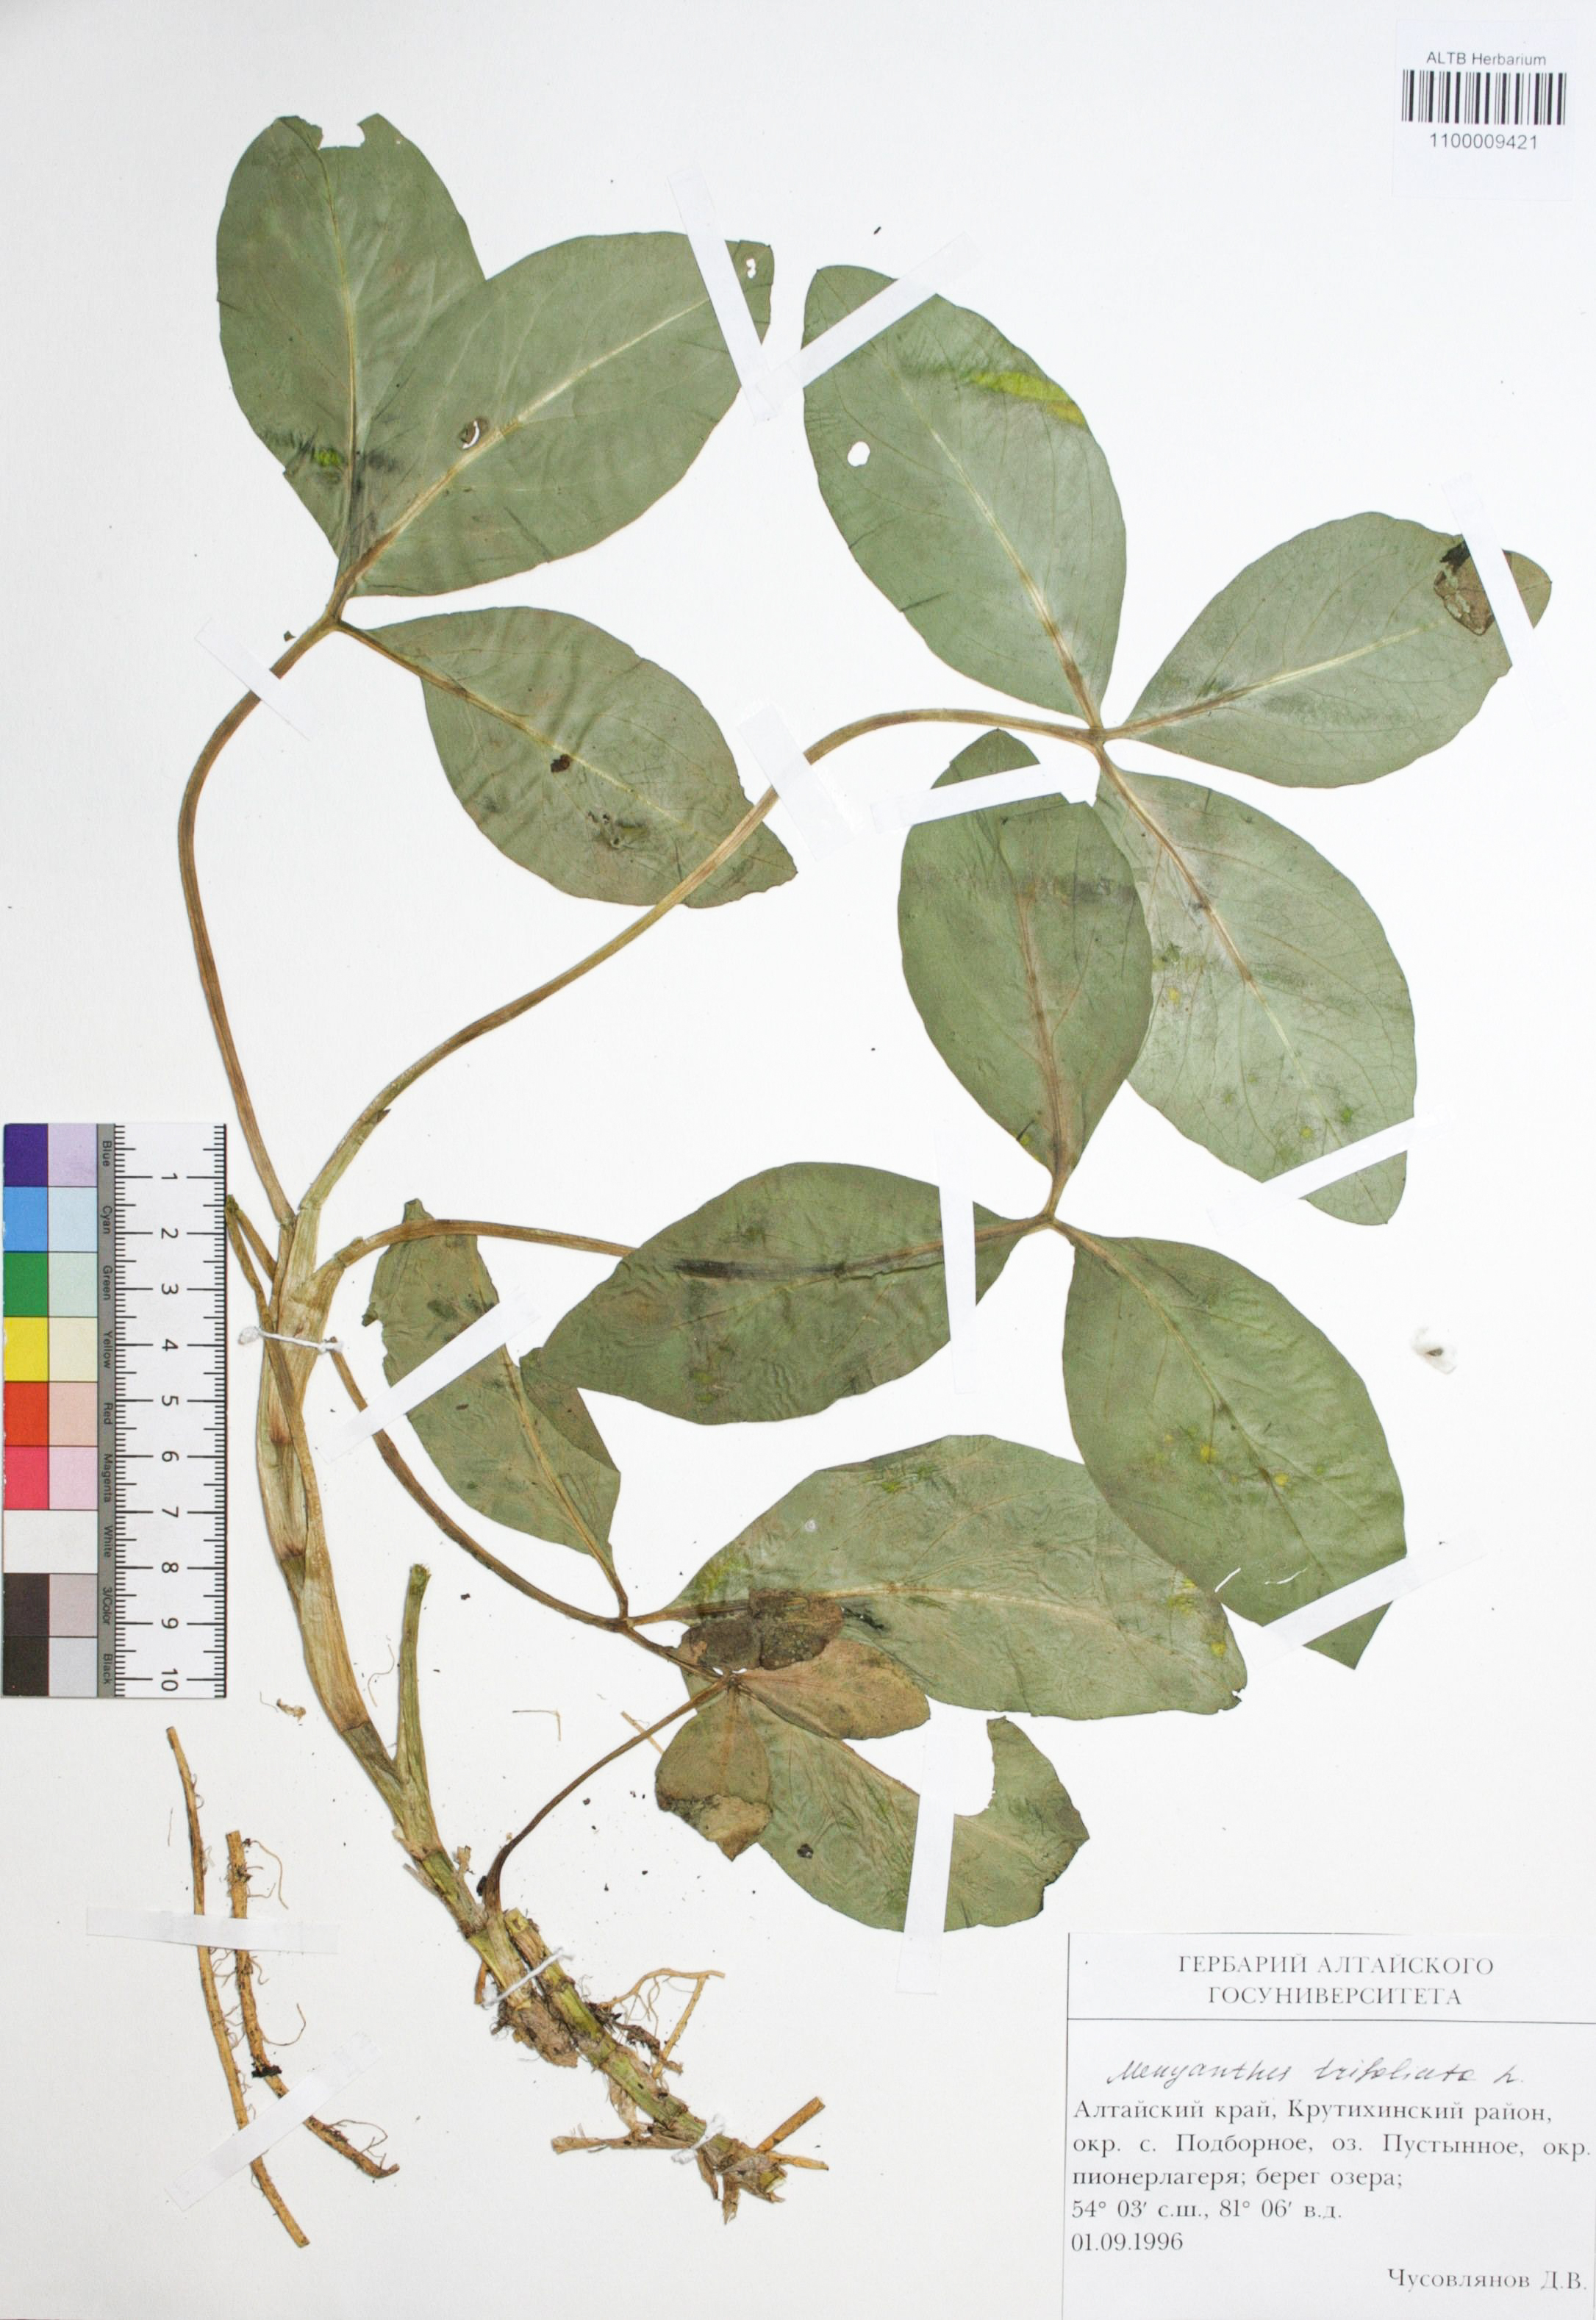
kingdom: Plantae
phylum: Tracheophyta
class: Magnoliopsida
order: Asterales
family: Menyanthaceae
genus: Menyanthes
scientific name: Menyanthes trifoliata
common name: Bogbean
